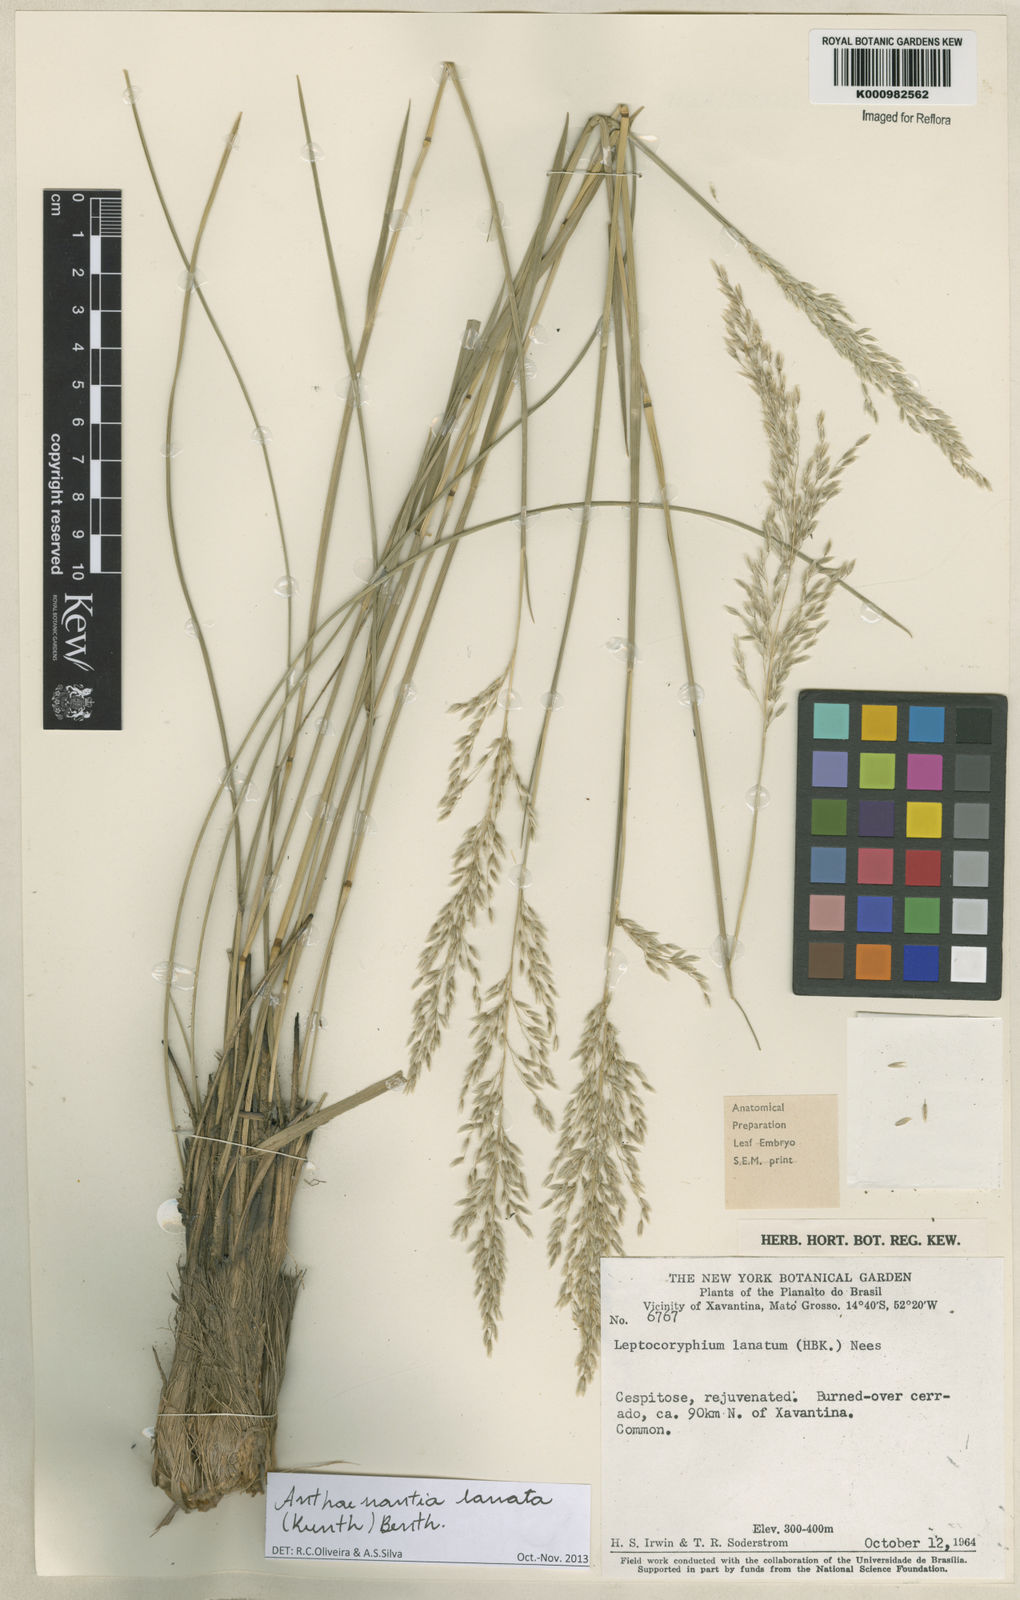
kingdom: Plantae
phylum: Tracheophyta
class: Liliopsida
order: Poales
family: Poaceae
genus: Anthenantia
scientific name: Anthenantia lanata
